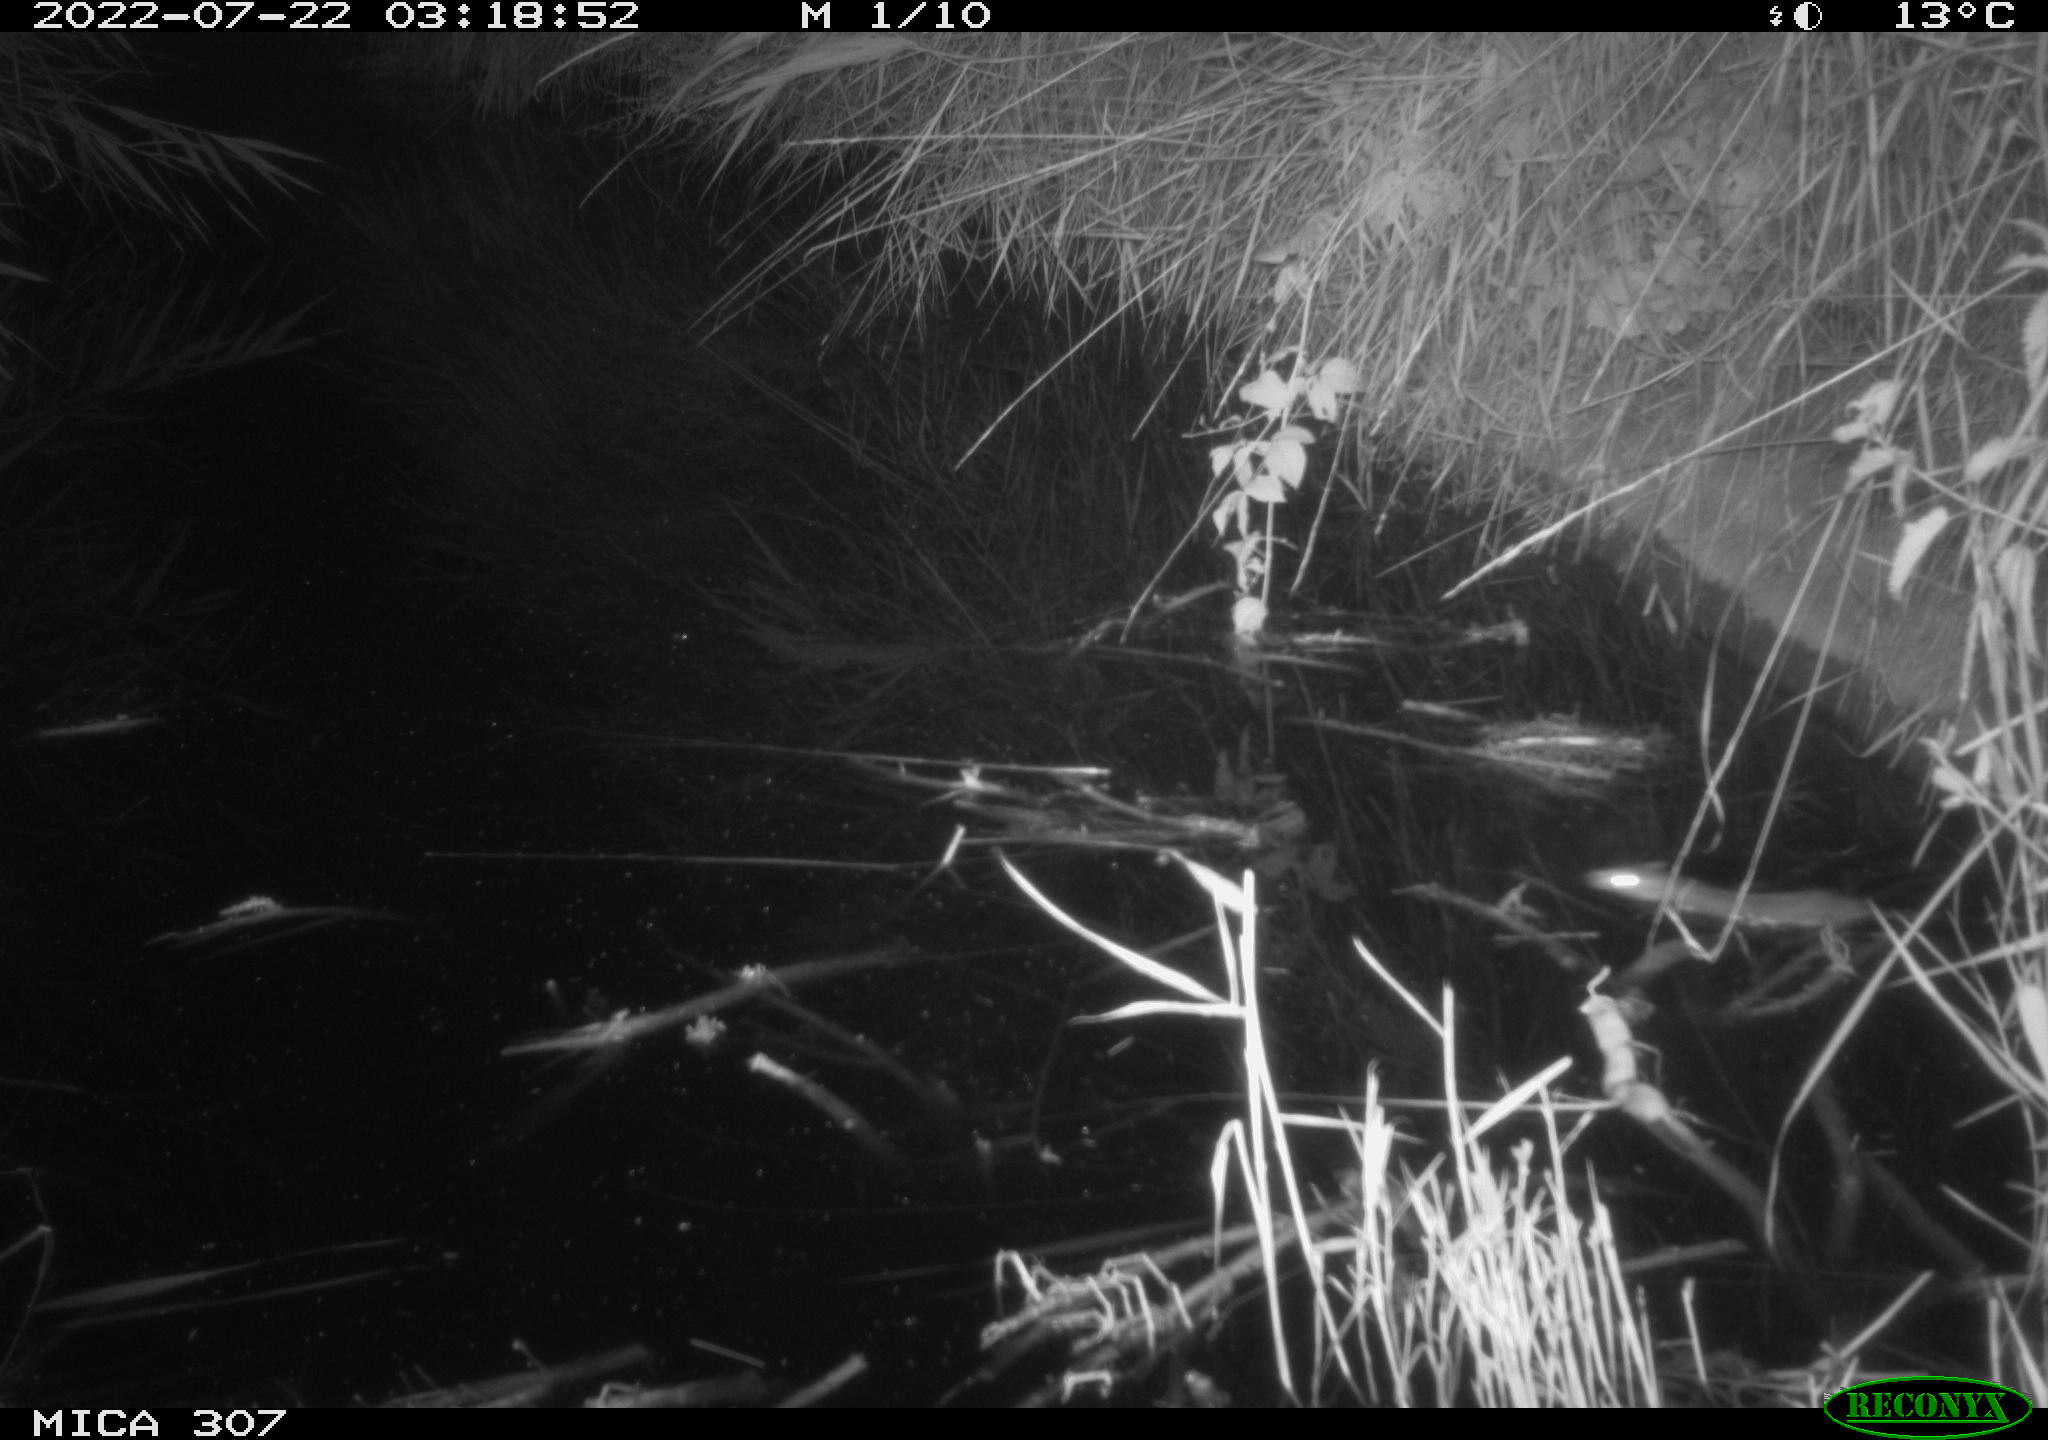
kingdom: Animalia
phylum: Chordata
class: Mammalia
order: Rodentia
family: Muridae
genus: Rattus
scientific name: Rattus norvegicus
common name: Brown rat
